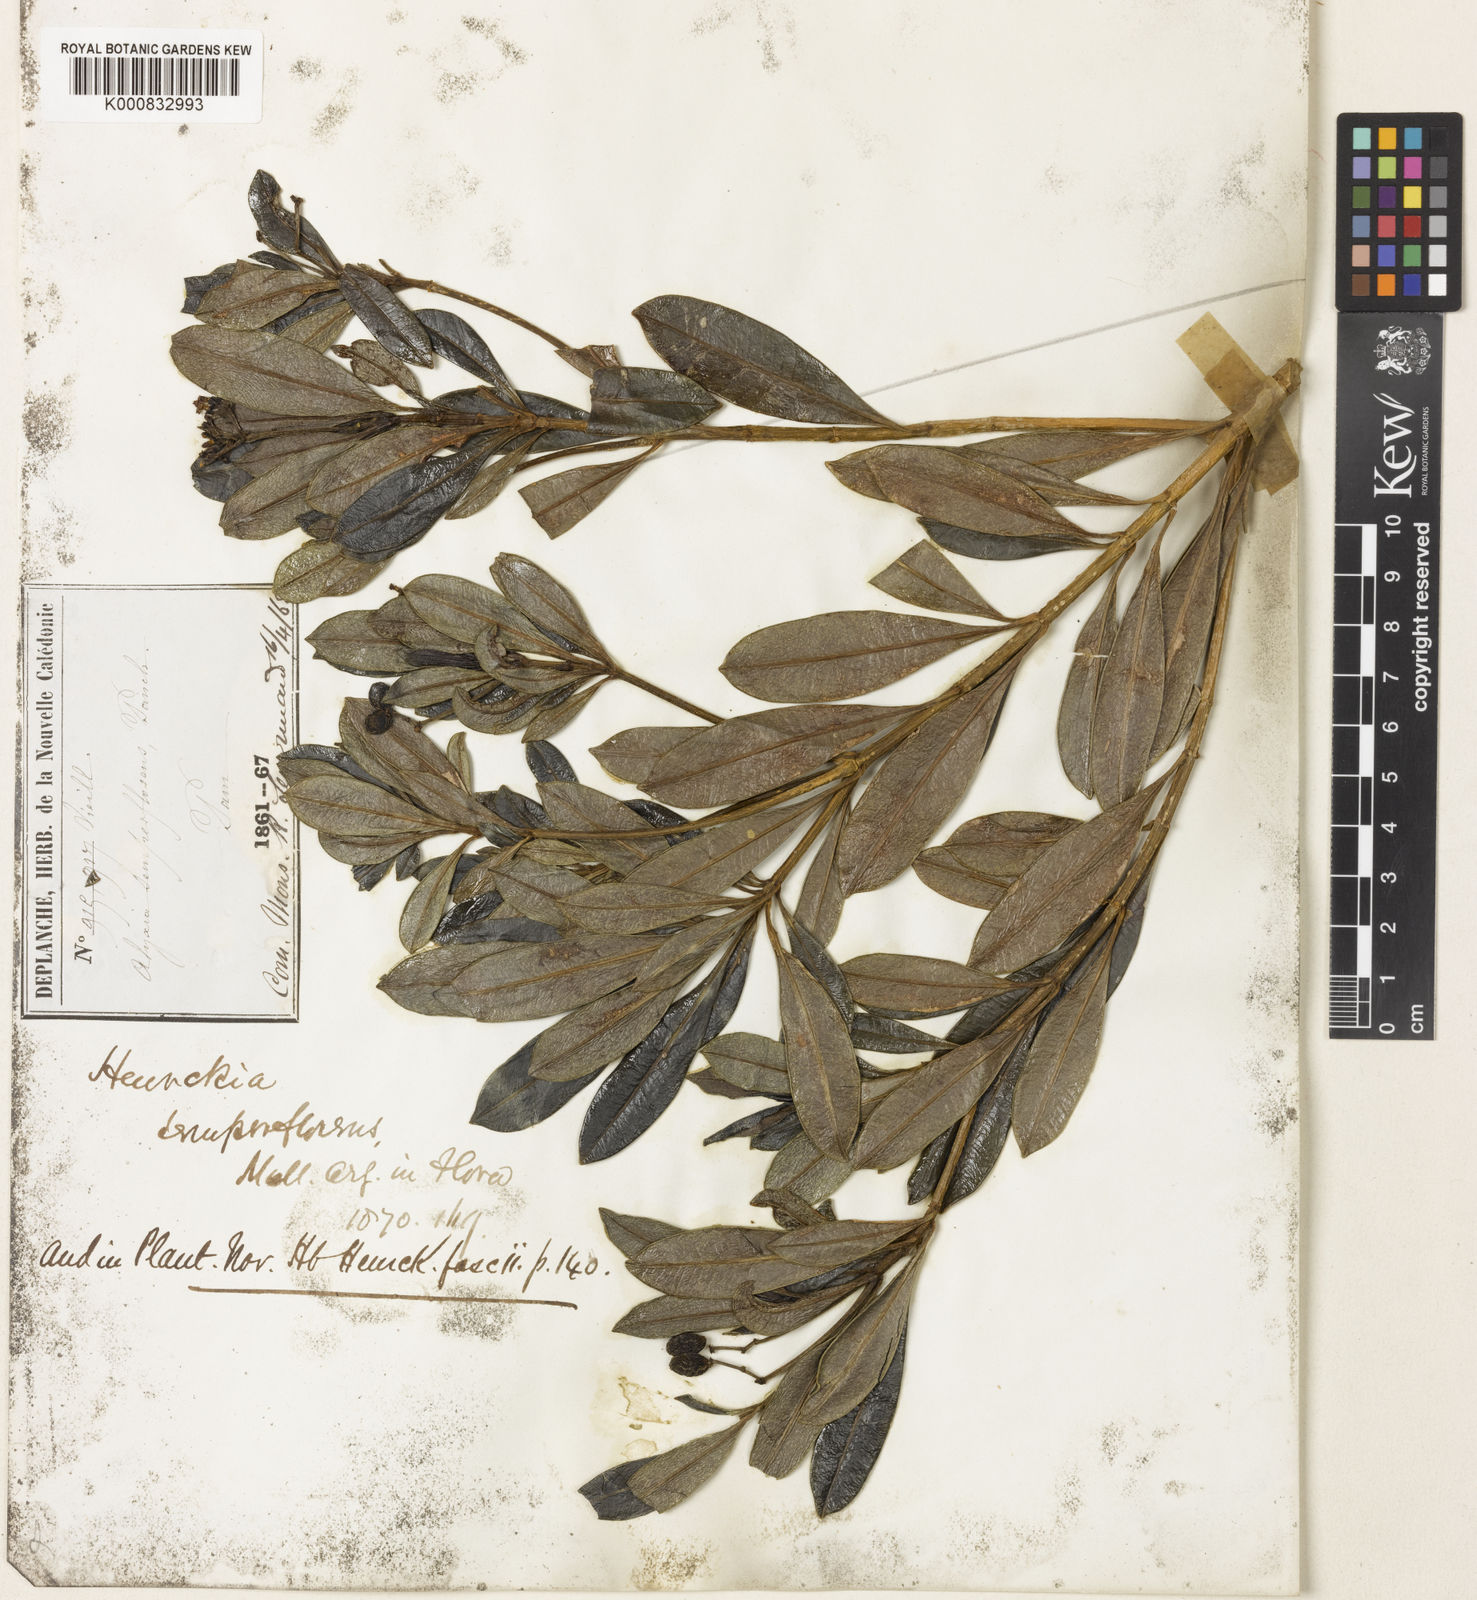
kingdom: Plantae
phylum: Tracheophyta
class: Magnoliopsida
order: Gentianales
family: Apocynaceae
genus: Rauvolfia
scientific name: Rauvolfia
